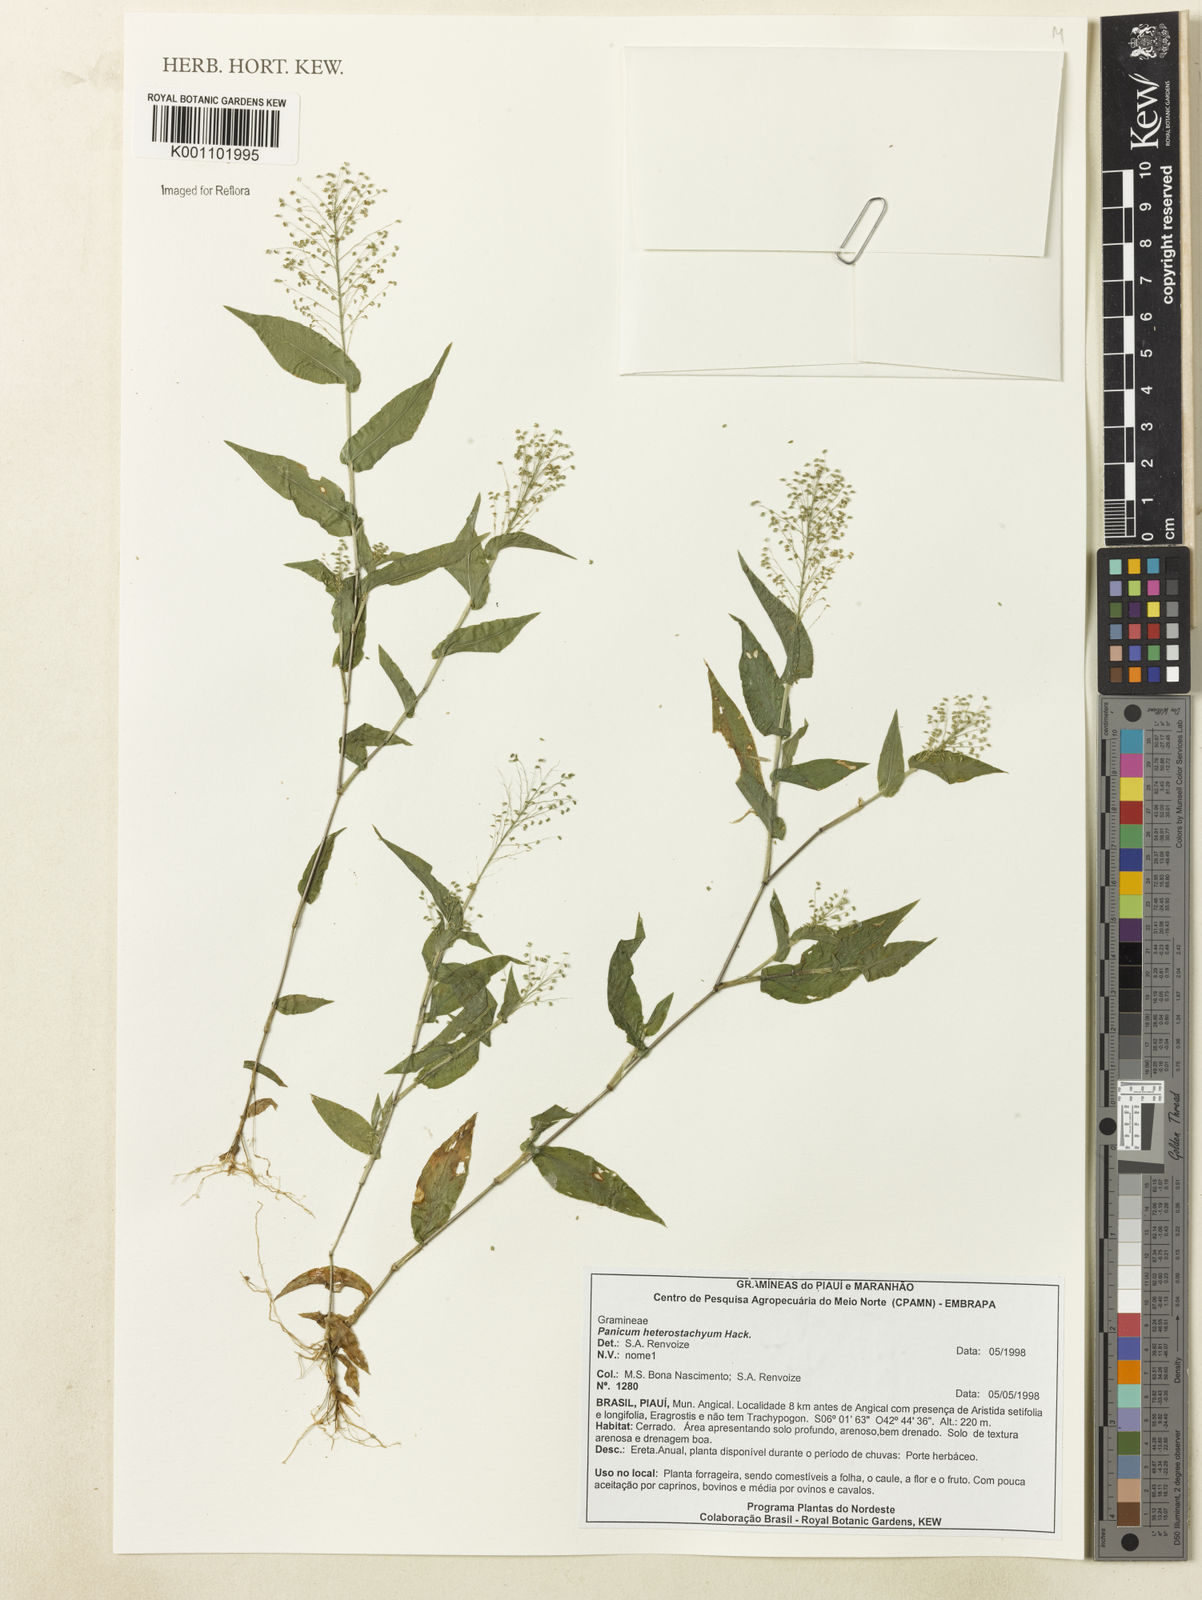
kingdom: Plantae
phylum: Tracheophyta
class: Liliopsida
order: Poales
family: Poaceae
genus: Panicum
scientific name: Panicum hirtum
